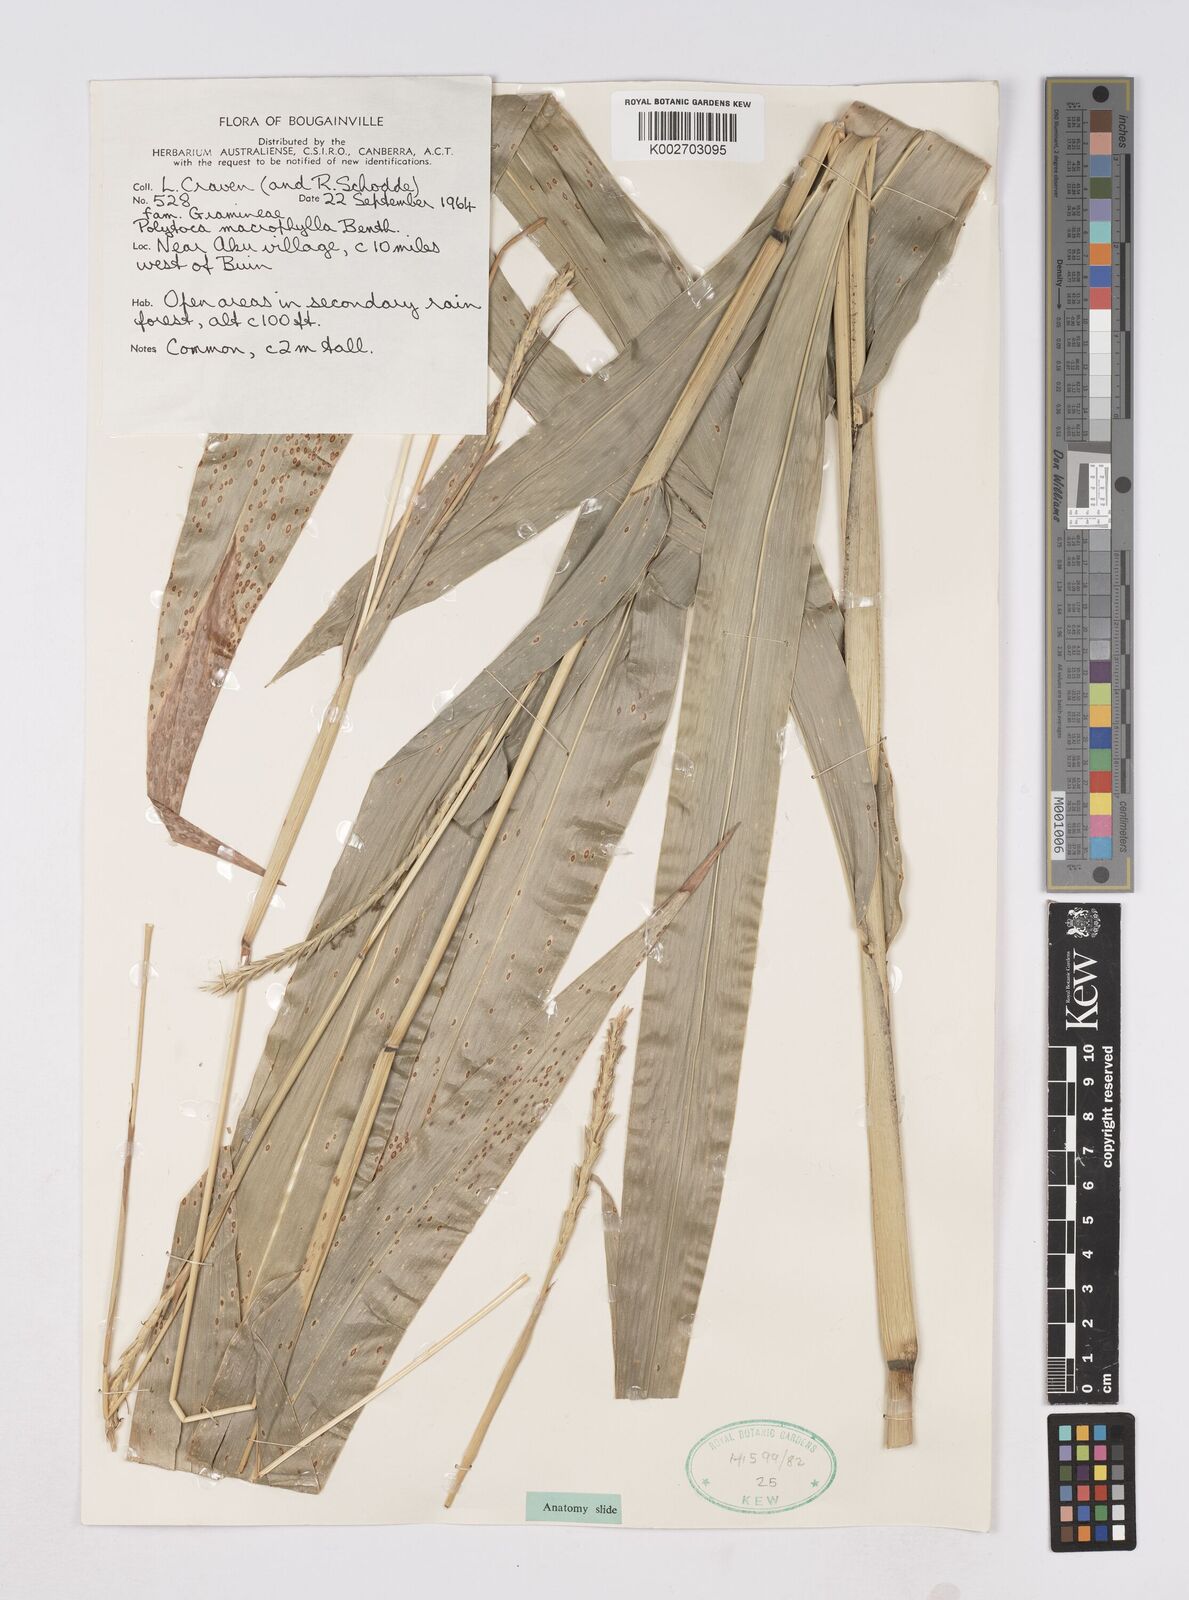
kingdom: Plantae
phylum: Tracheophyta
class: Liliopsida
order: Poales
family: Poaceae
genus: Polytoca
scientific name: Polytoca macrophylla
